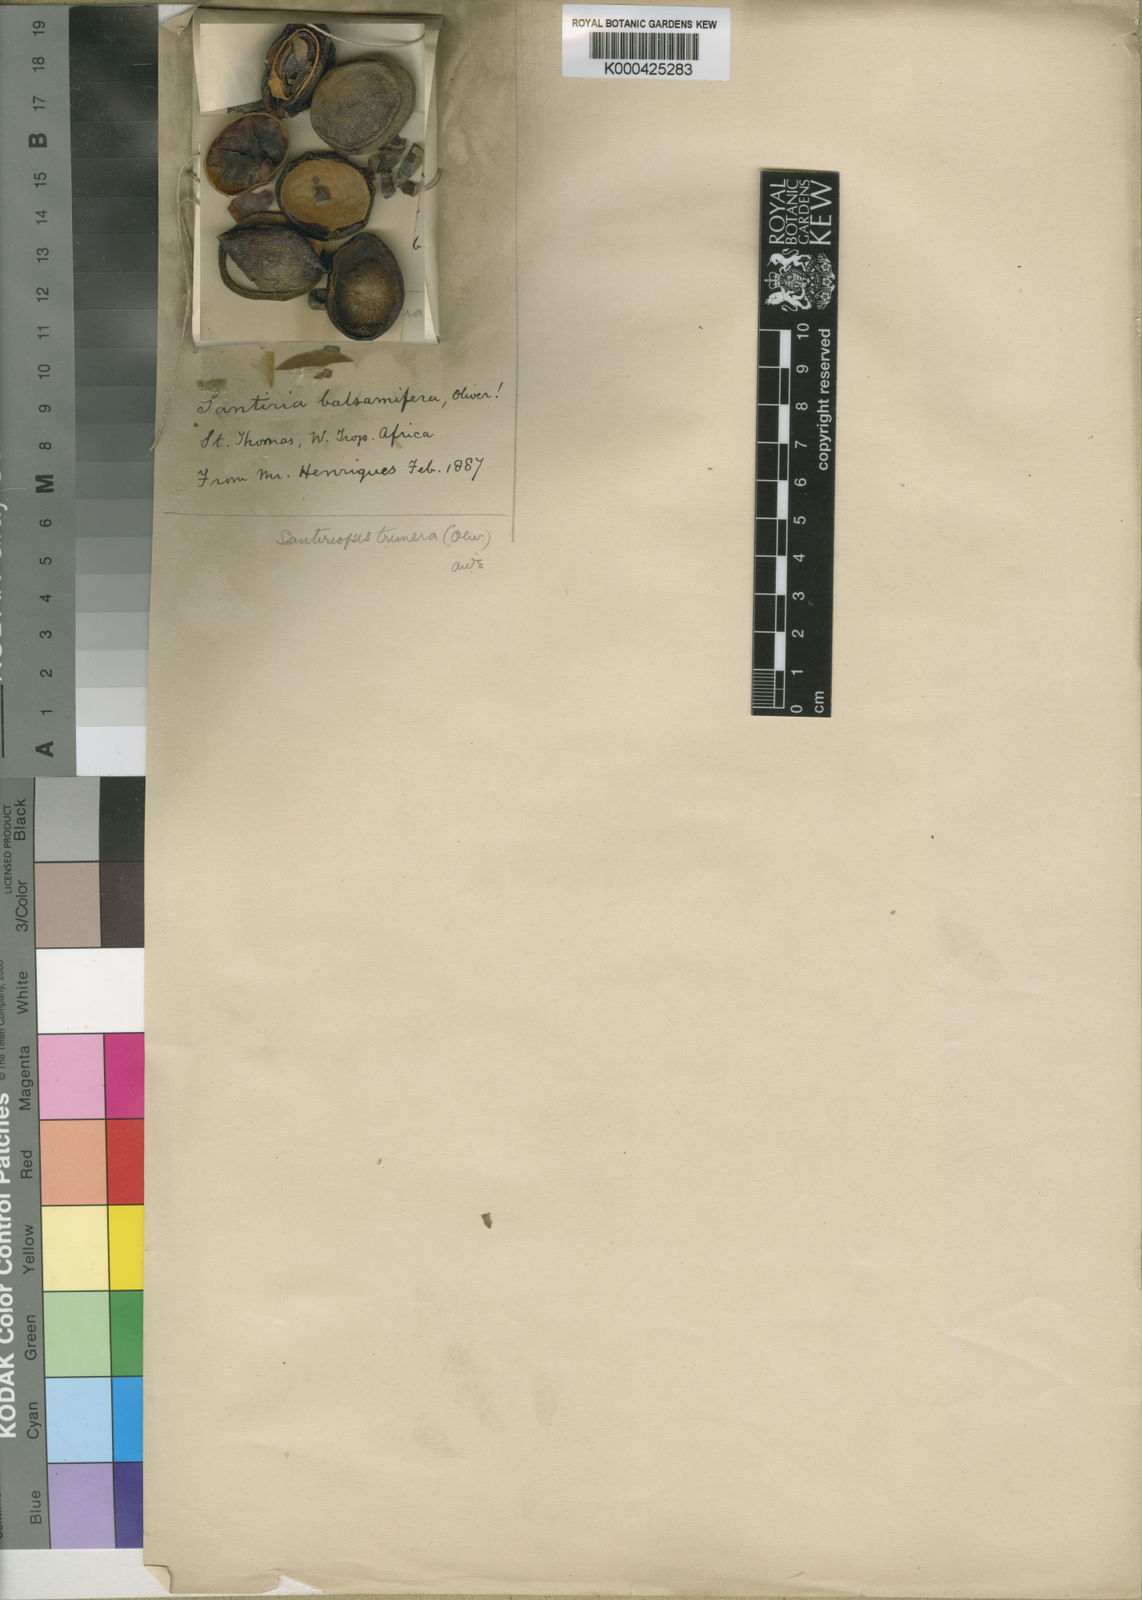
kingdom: Plantae
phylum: Tracheophyta
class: Magnoliopsida
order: Sapindales
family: Burseraceae
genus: Santiria
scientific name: Santiria
